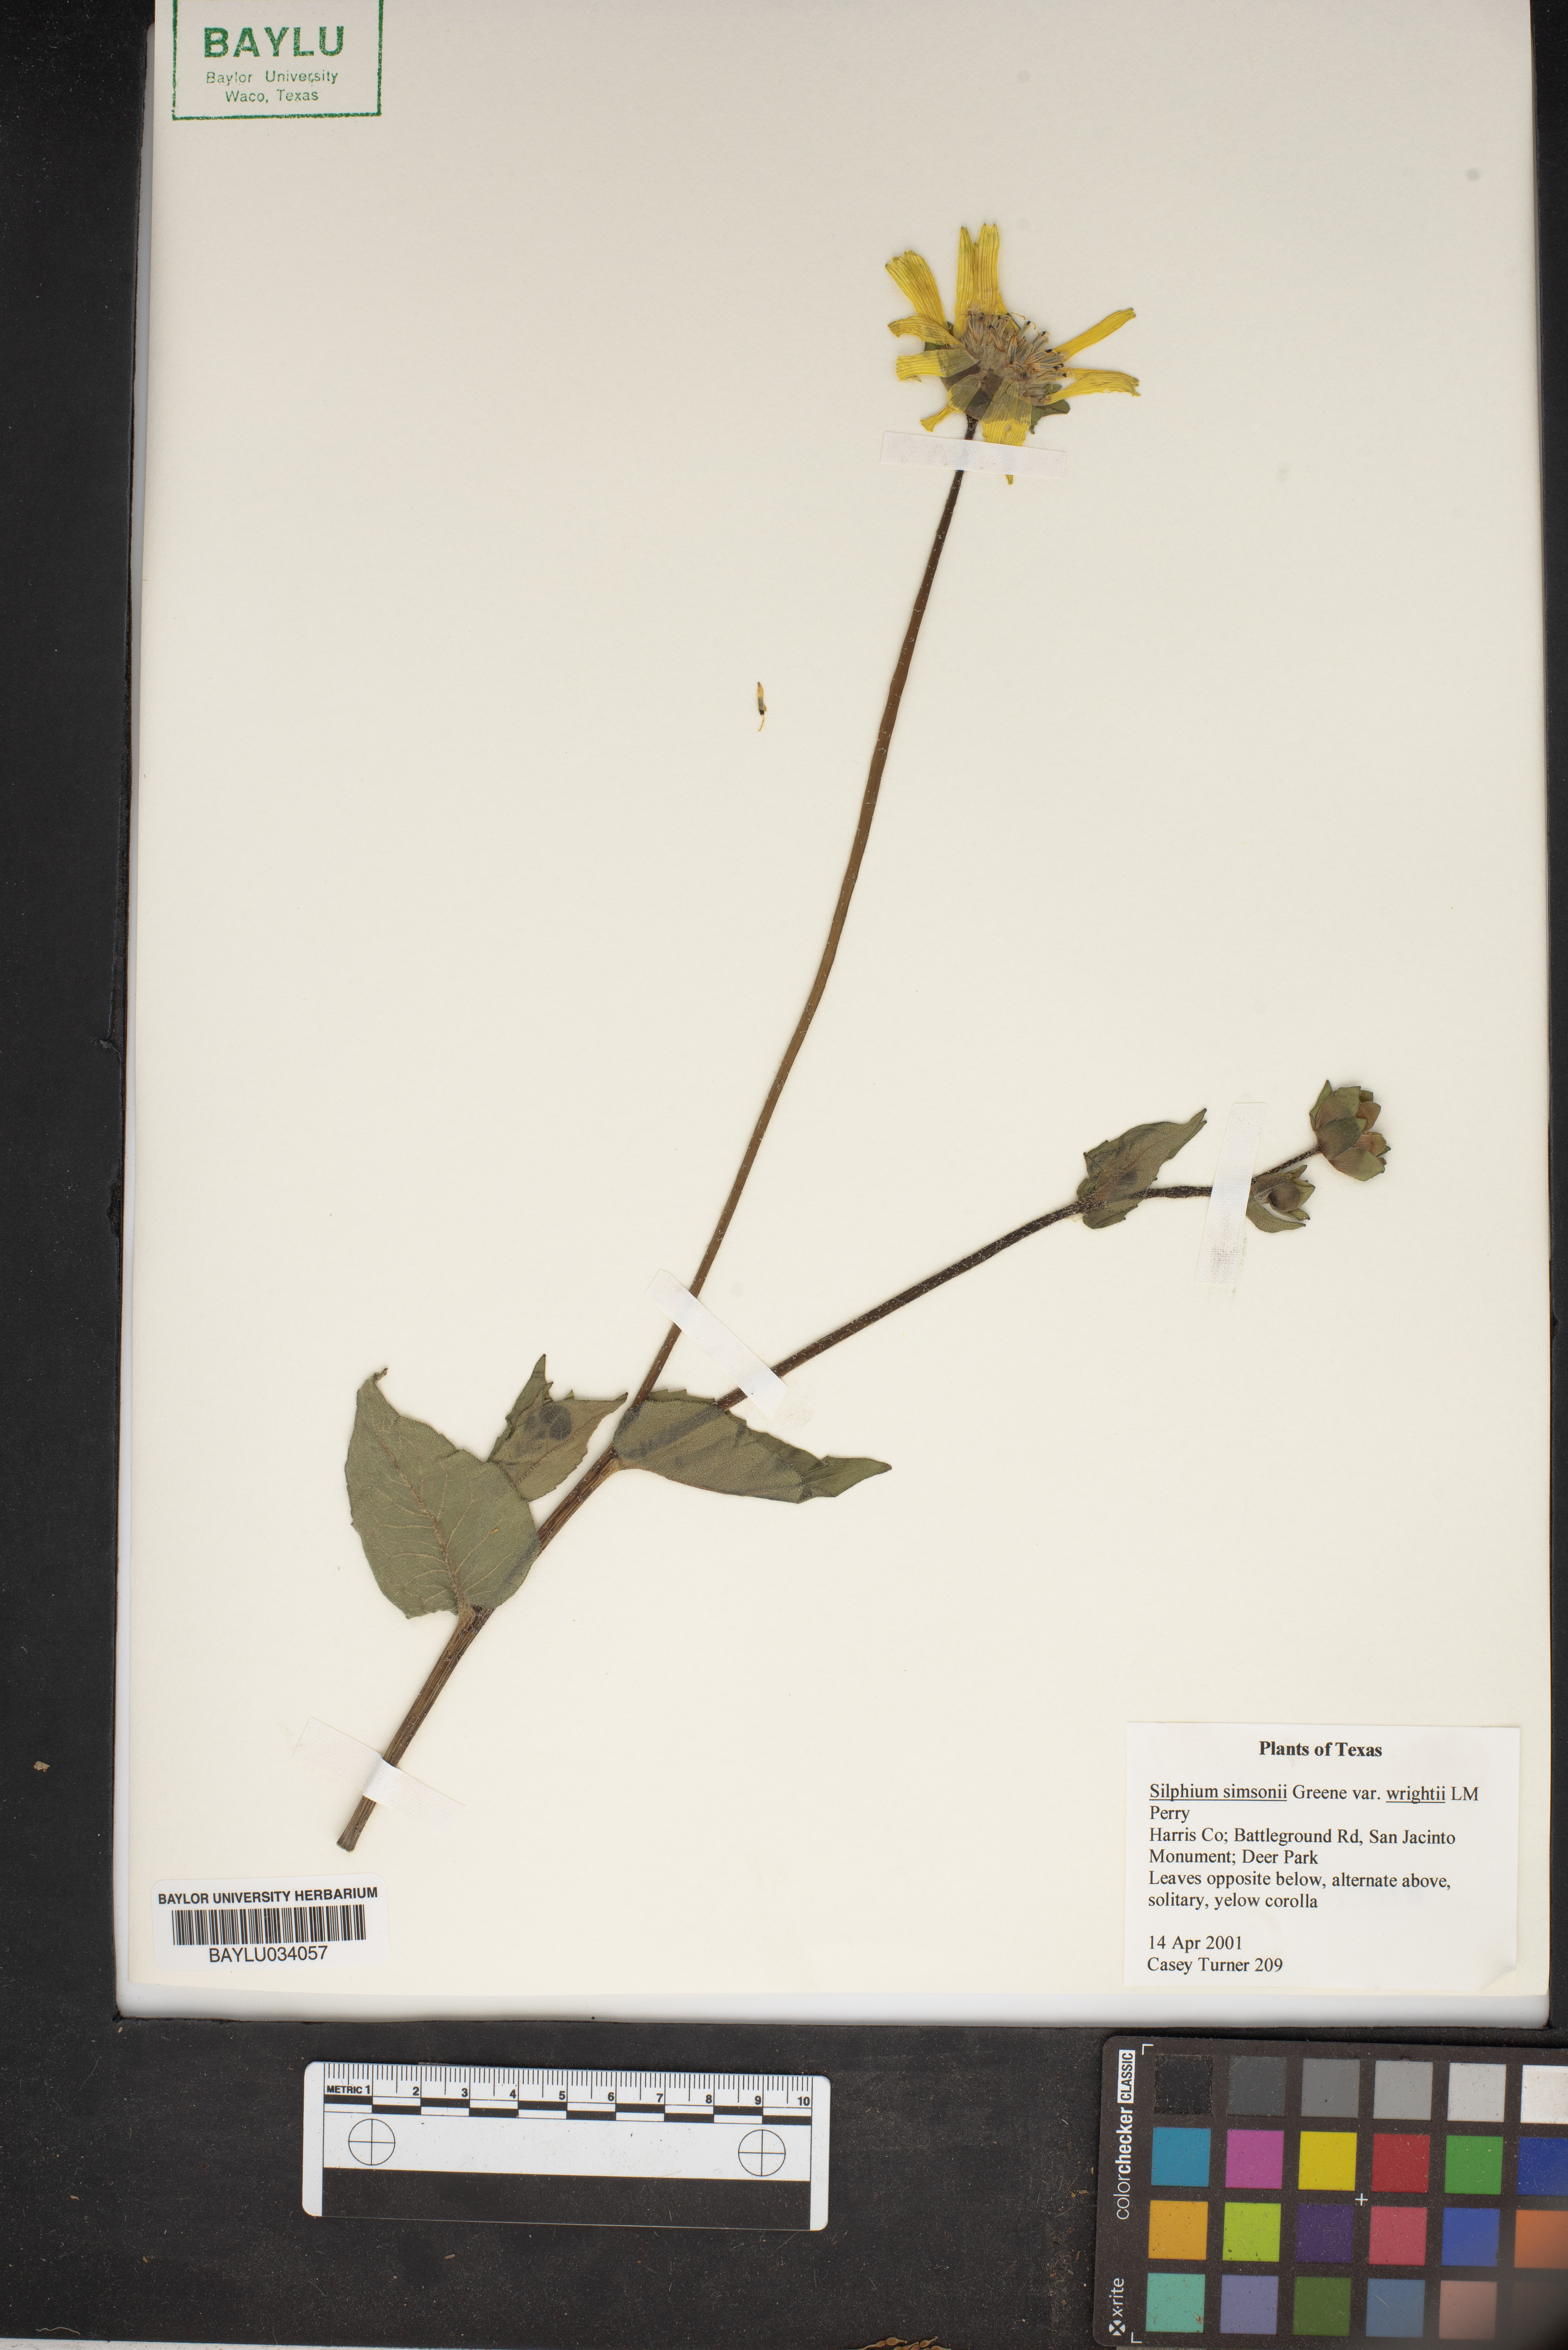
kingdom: Plantae
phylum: Tracheophyta
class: Magnoliopsida
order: Asterales
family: Asteraceae
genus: Silphium
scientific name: Silphium radula
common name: Roughleaf rosinweed
